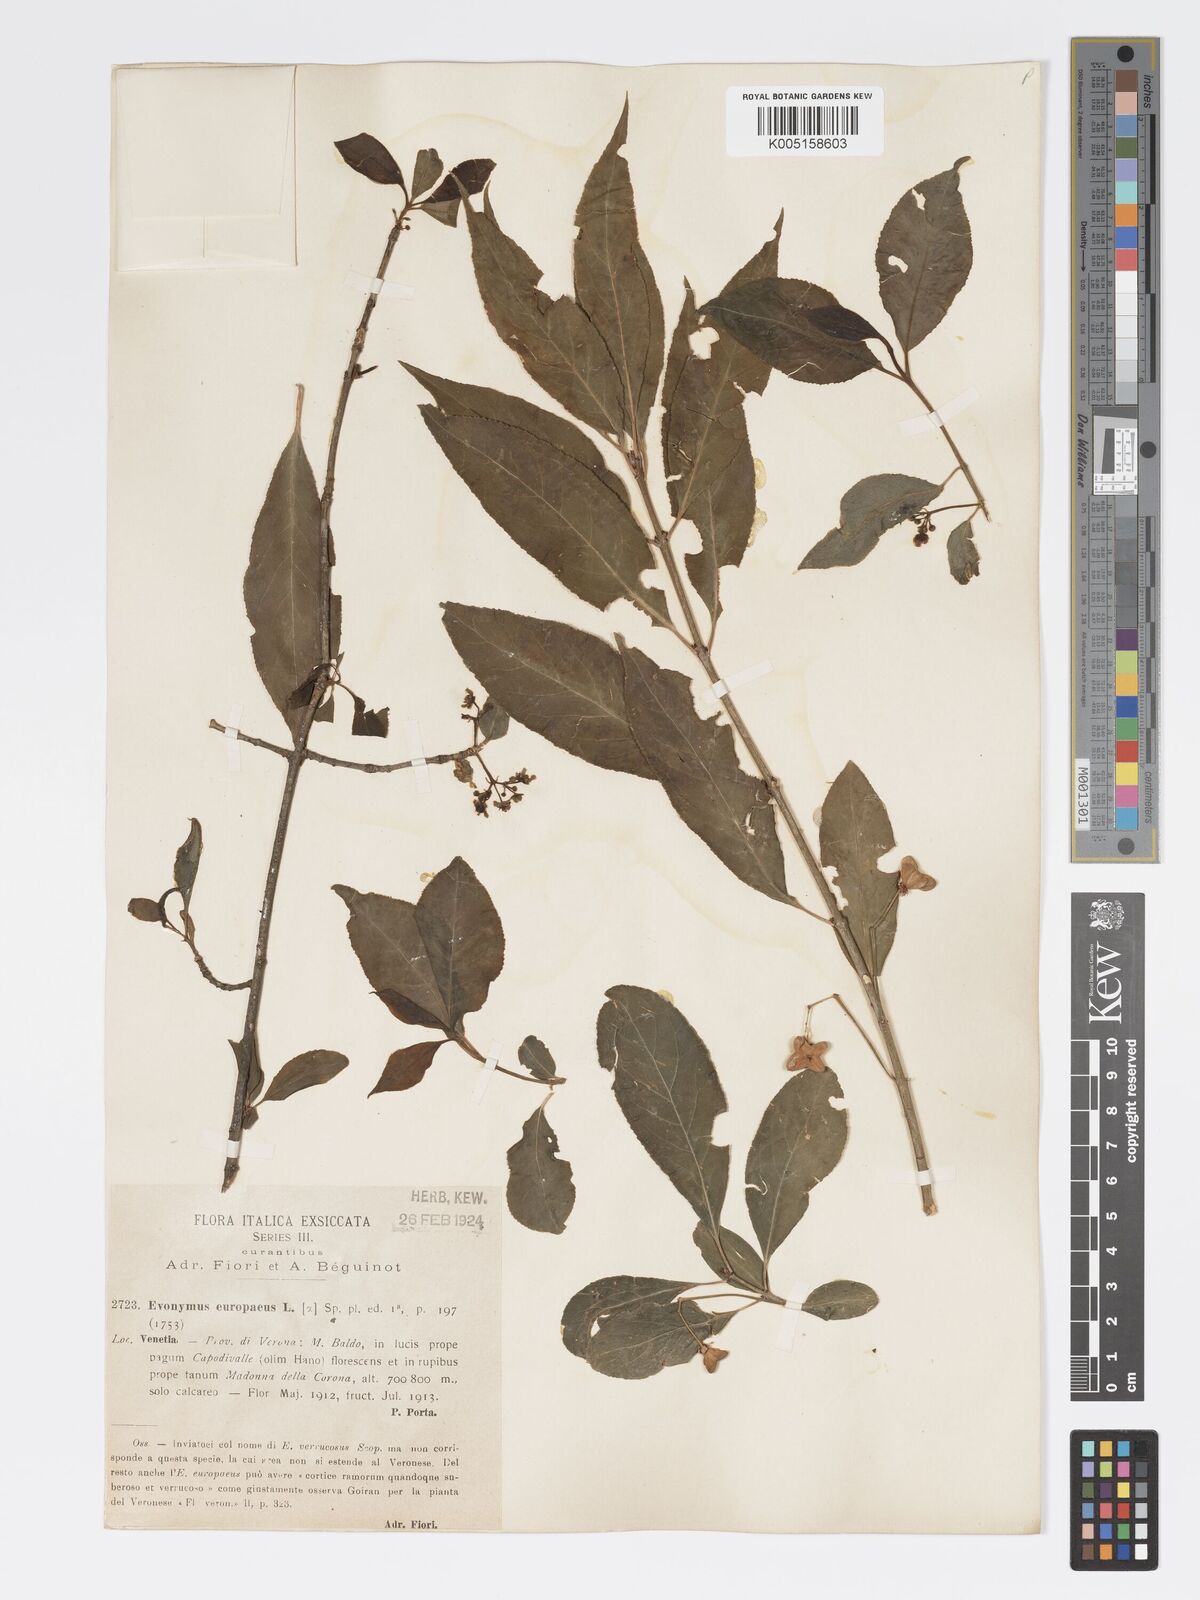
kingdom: Plantae
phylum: Tracheophyta
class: Magnoliopsida
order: Celastrales
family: Celastraceae
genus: Euonymus
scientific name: Euonymus europaeus
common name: Spindle
